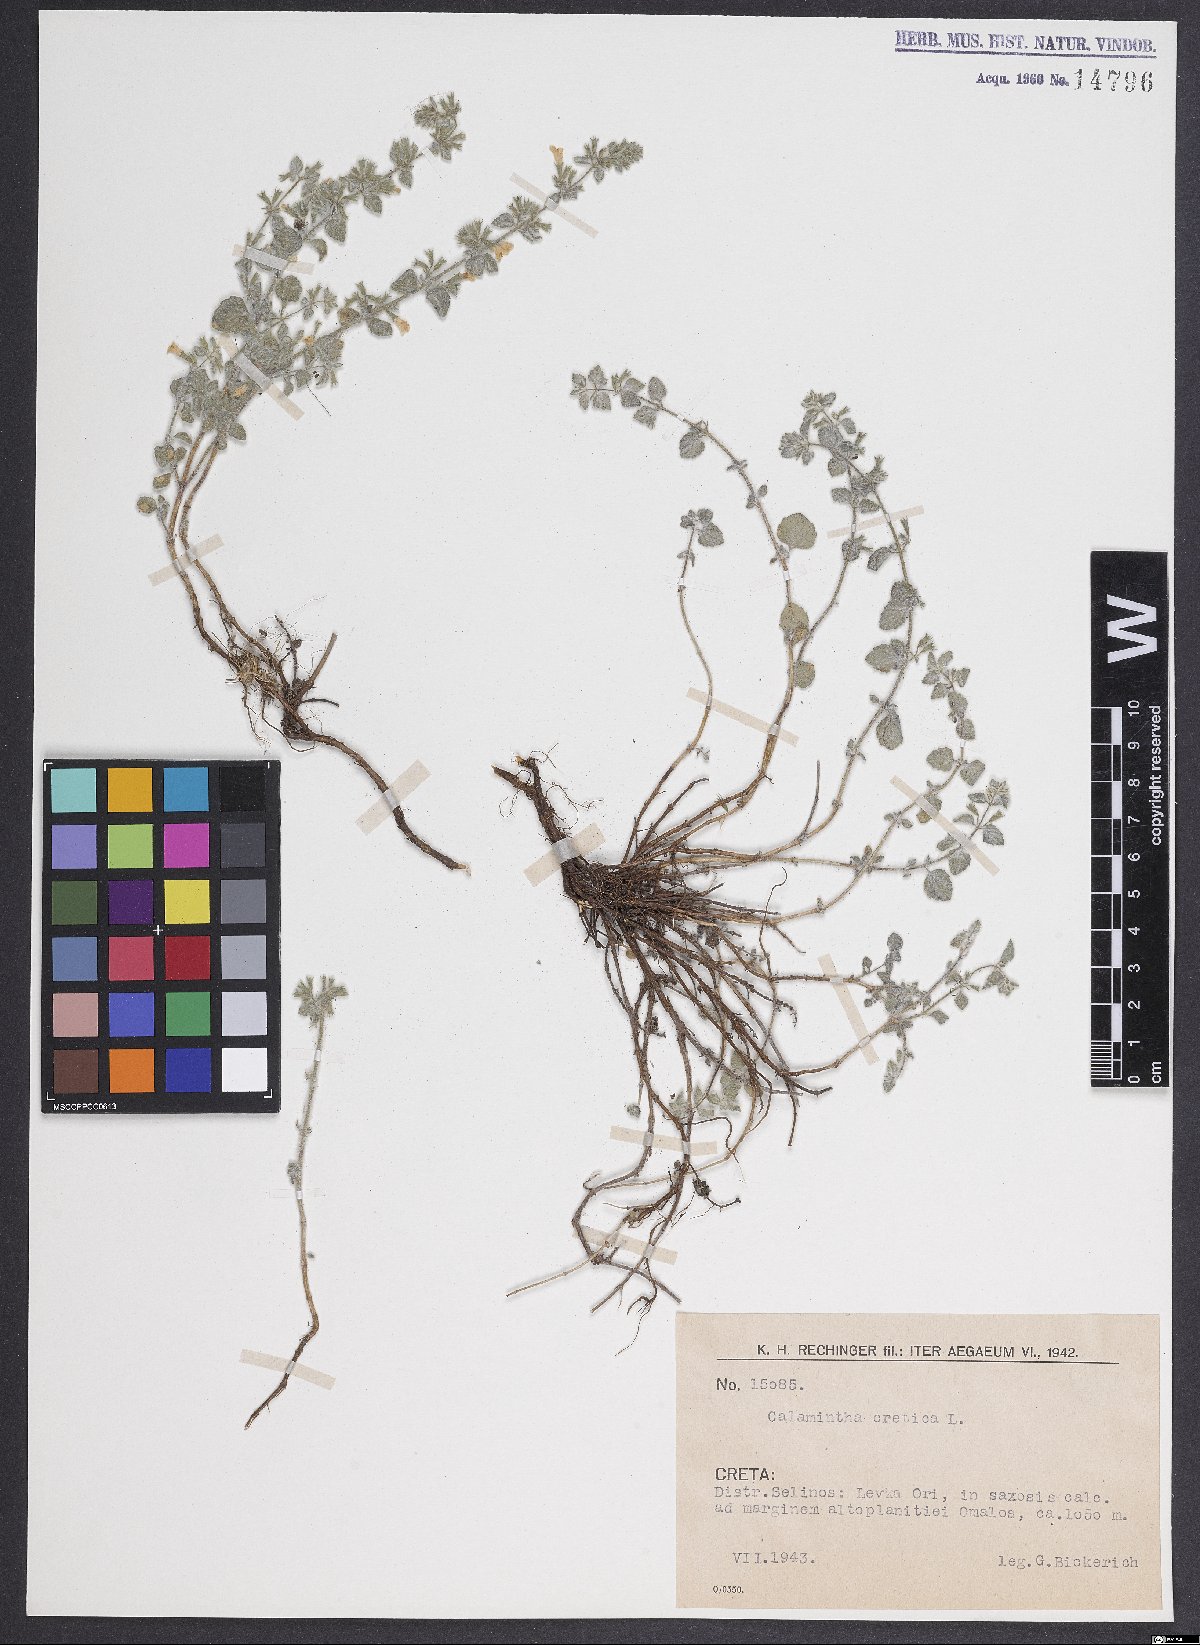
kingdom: Plantae
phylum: Tracheophyta
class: Magnoliopsida
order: Lamiales
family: Lamiaceae
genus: Clinopodium
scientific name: Clinopodium creticum
